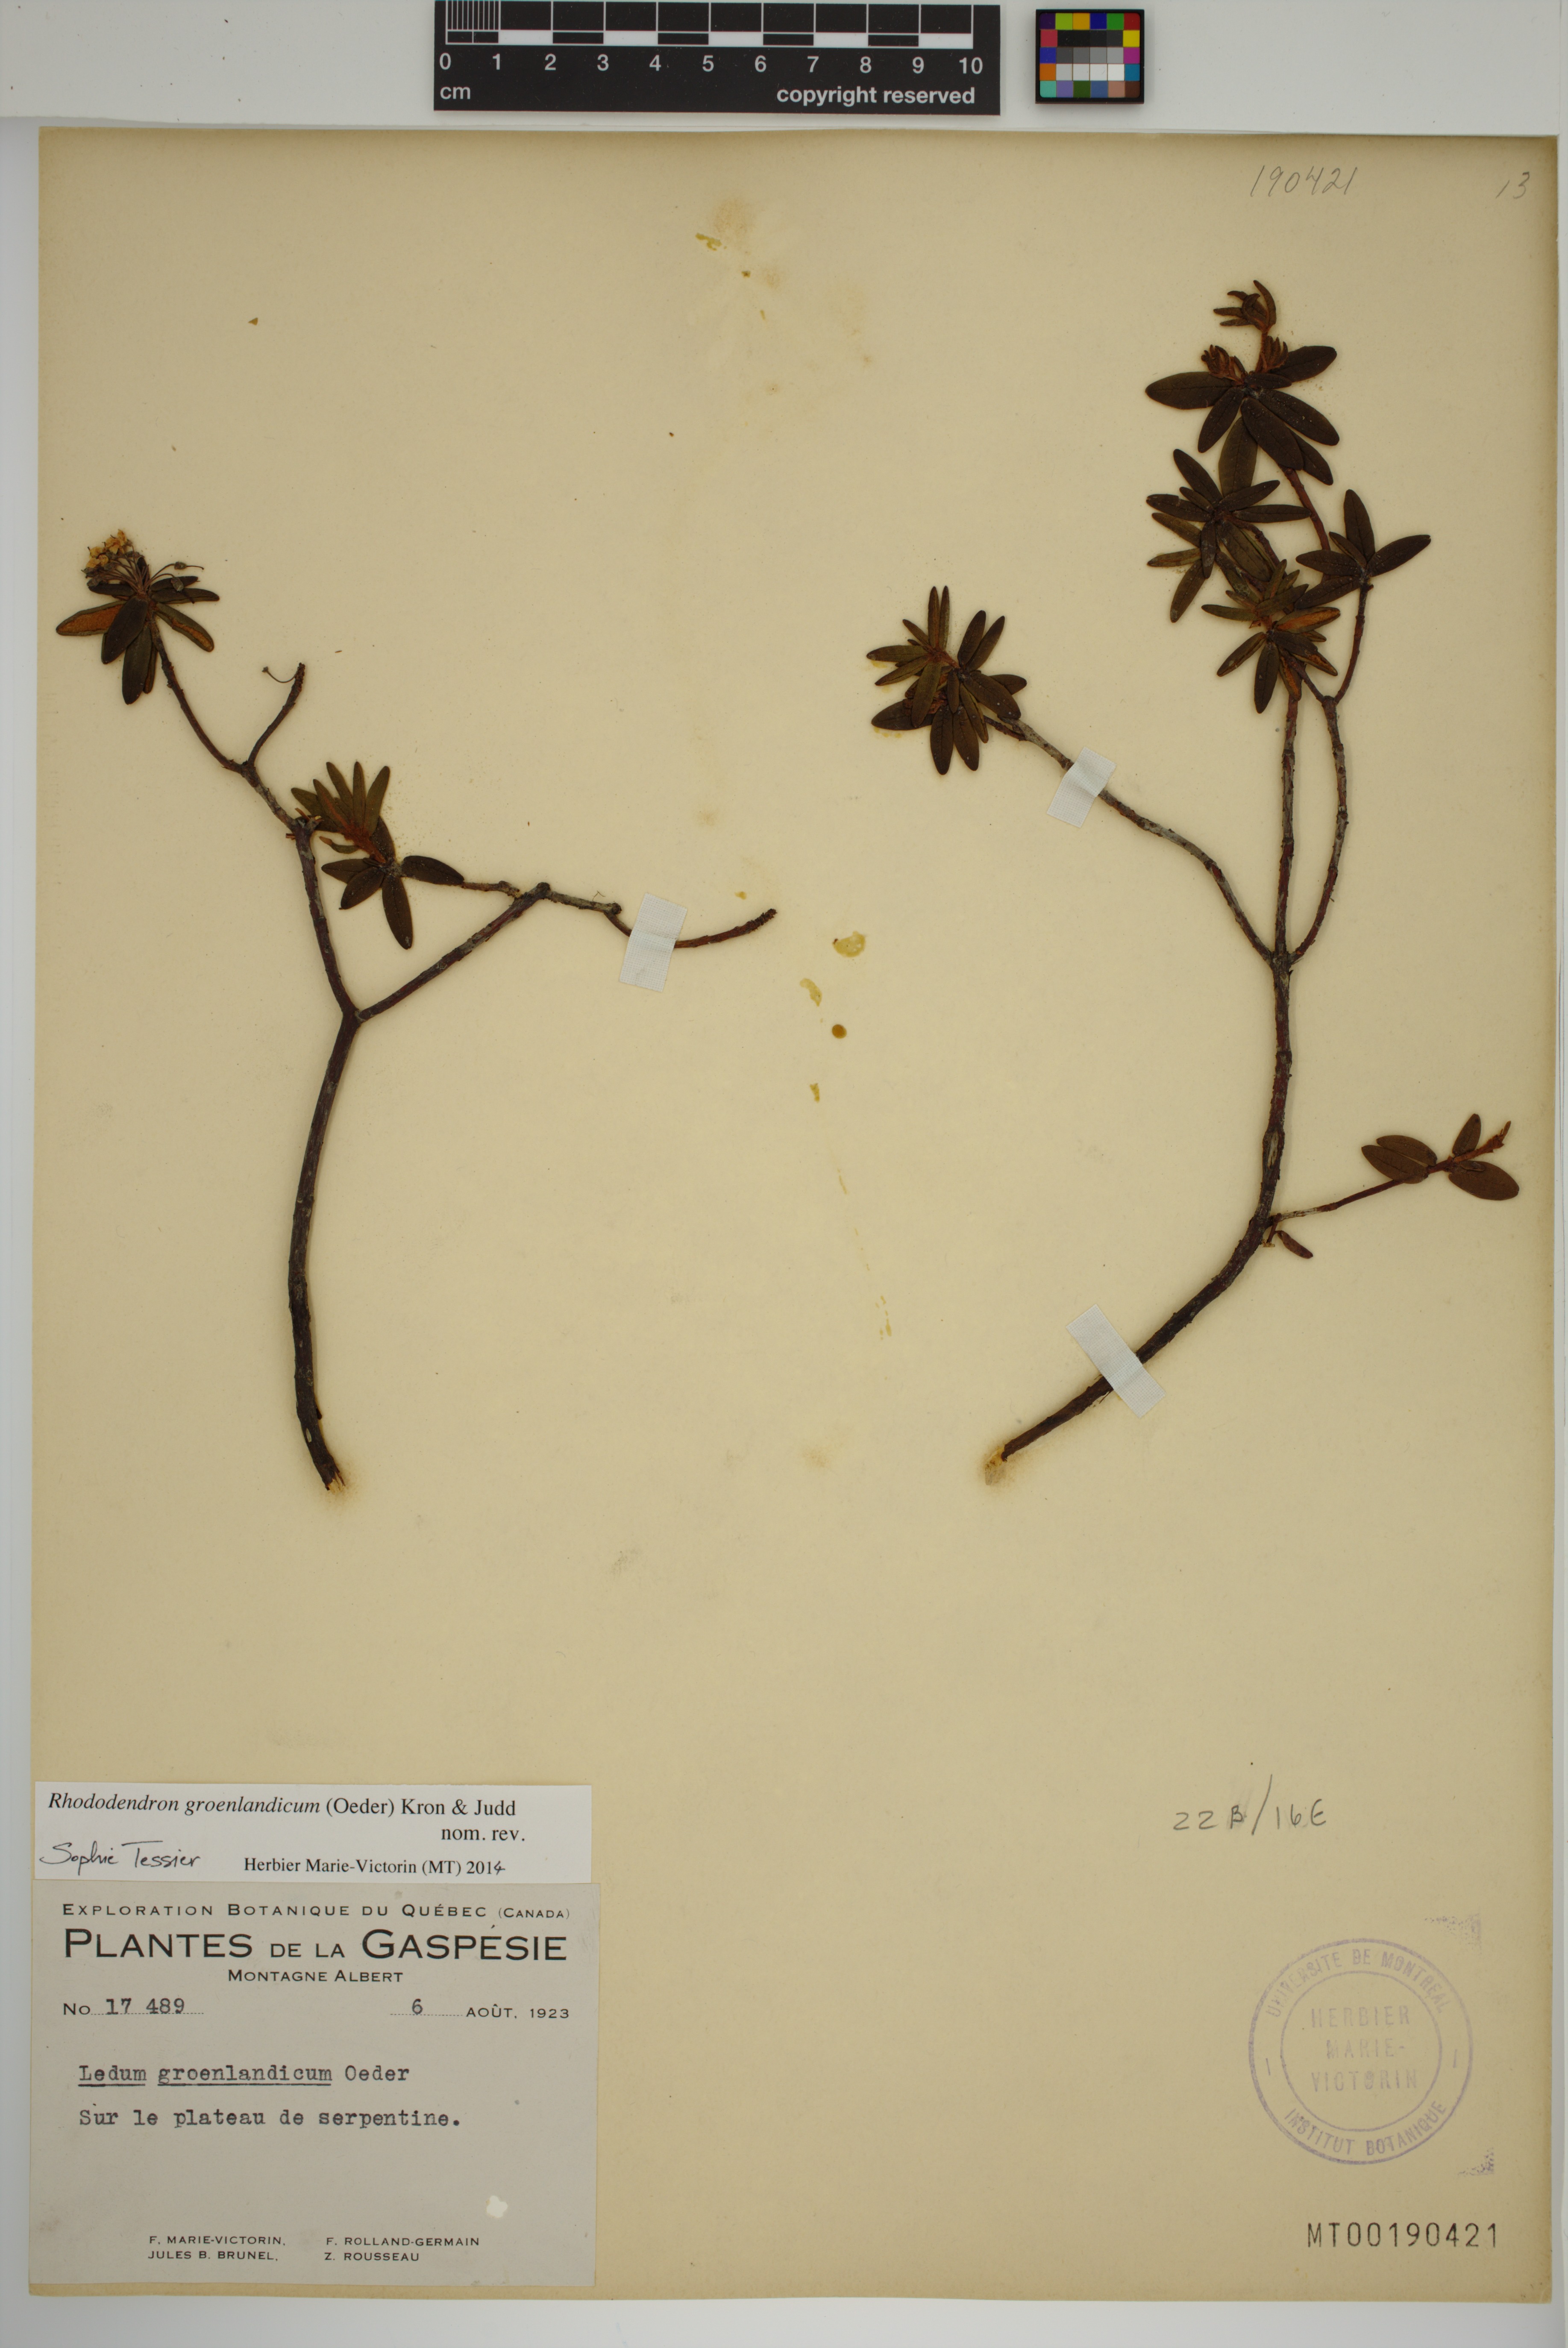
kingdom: Plantae
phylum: Tracheophyta
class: Magnoliopsida
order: Ericales
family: Ericaceae
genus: Rhododendron
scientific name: Rhododendron groenlandicum
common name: Bog labrador tea
